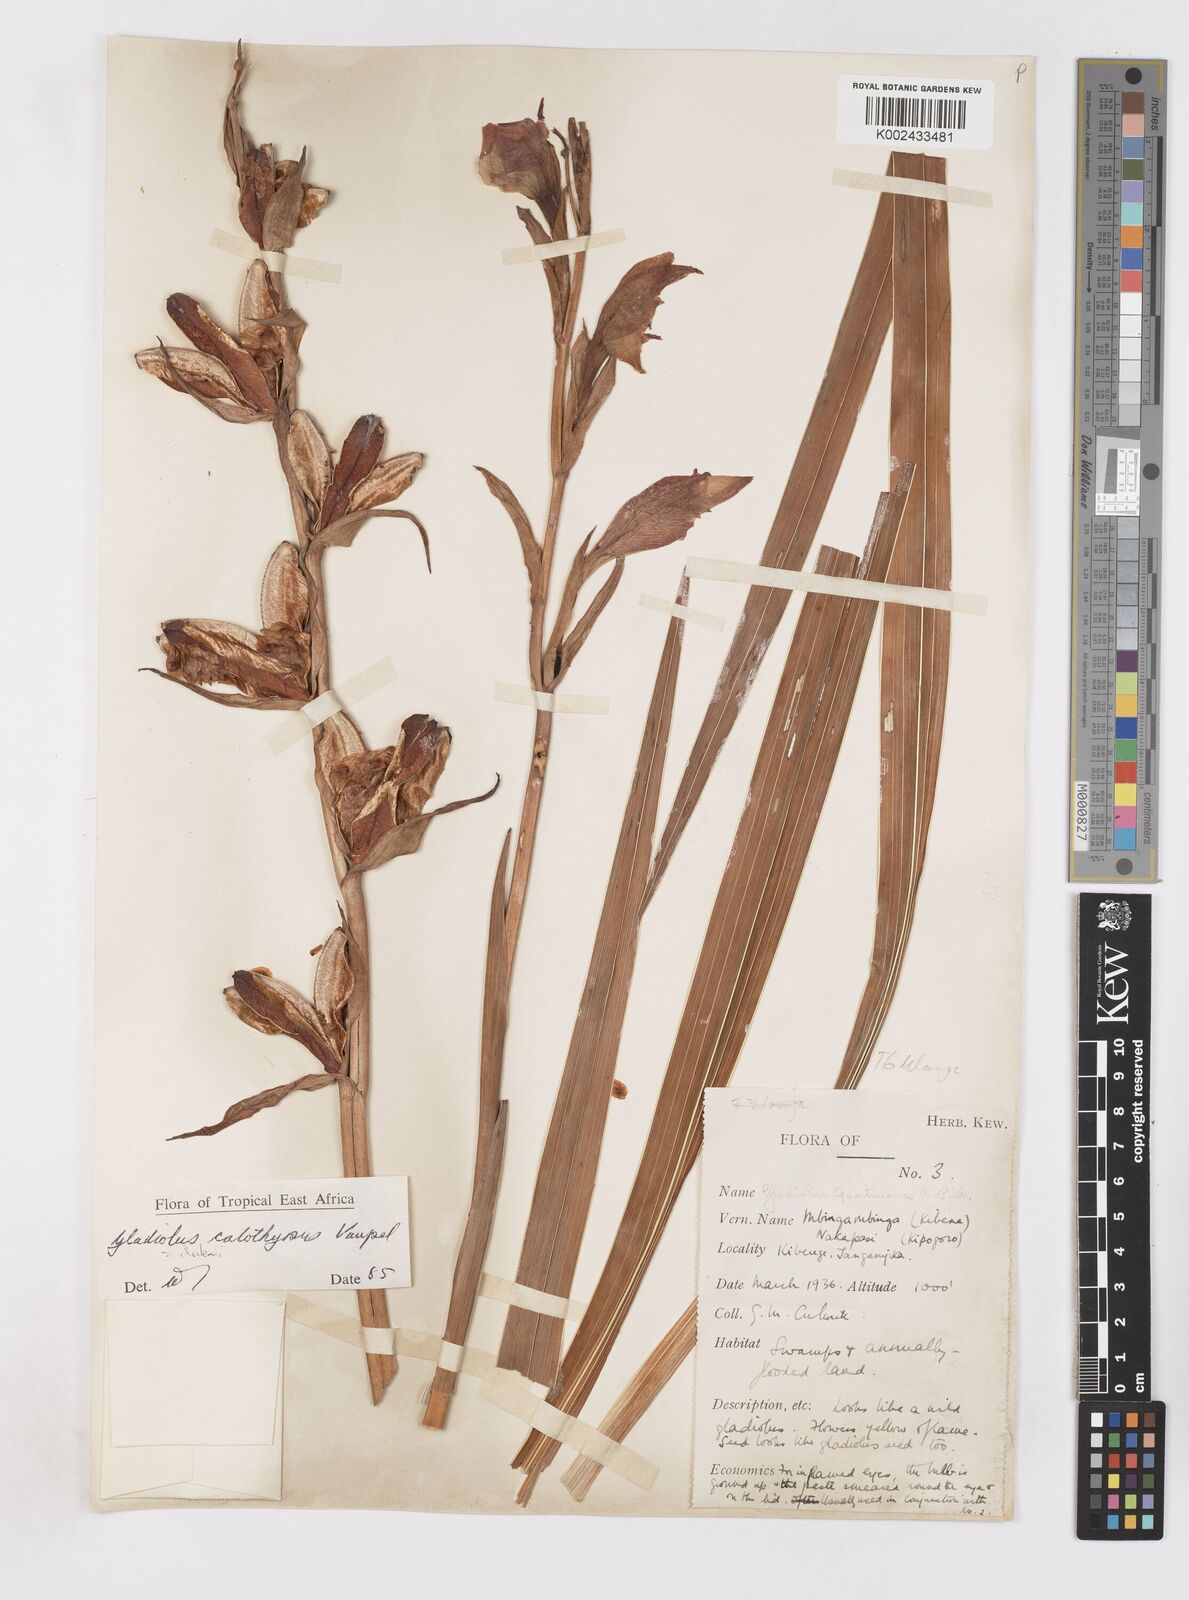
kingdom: Plantae
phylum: Tracheophyta
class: Liliopsida
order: Asparagales
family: Iridaceae
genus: Gladiolus
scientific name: Gladiolus dalenii
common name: Cornflag
